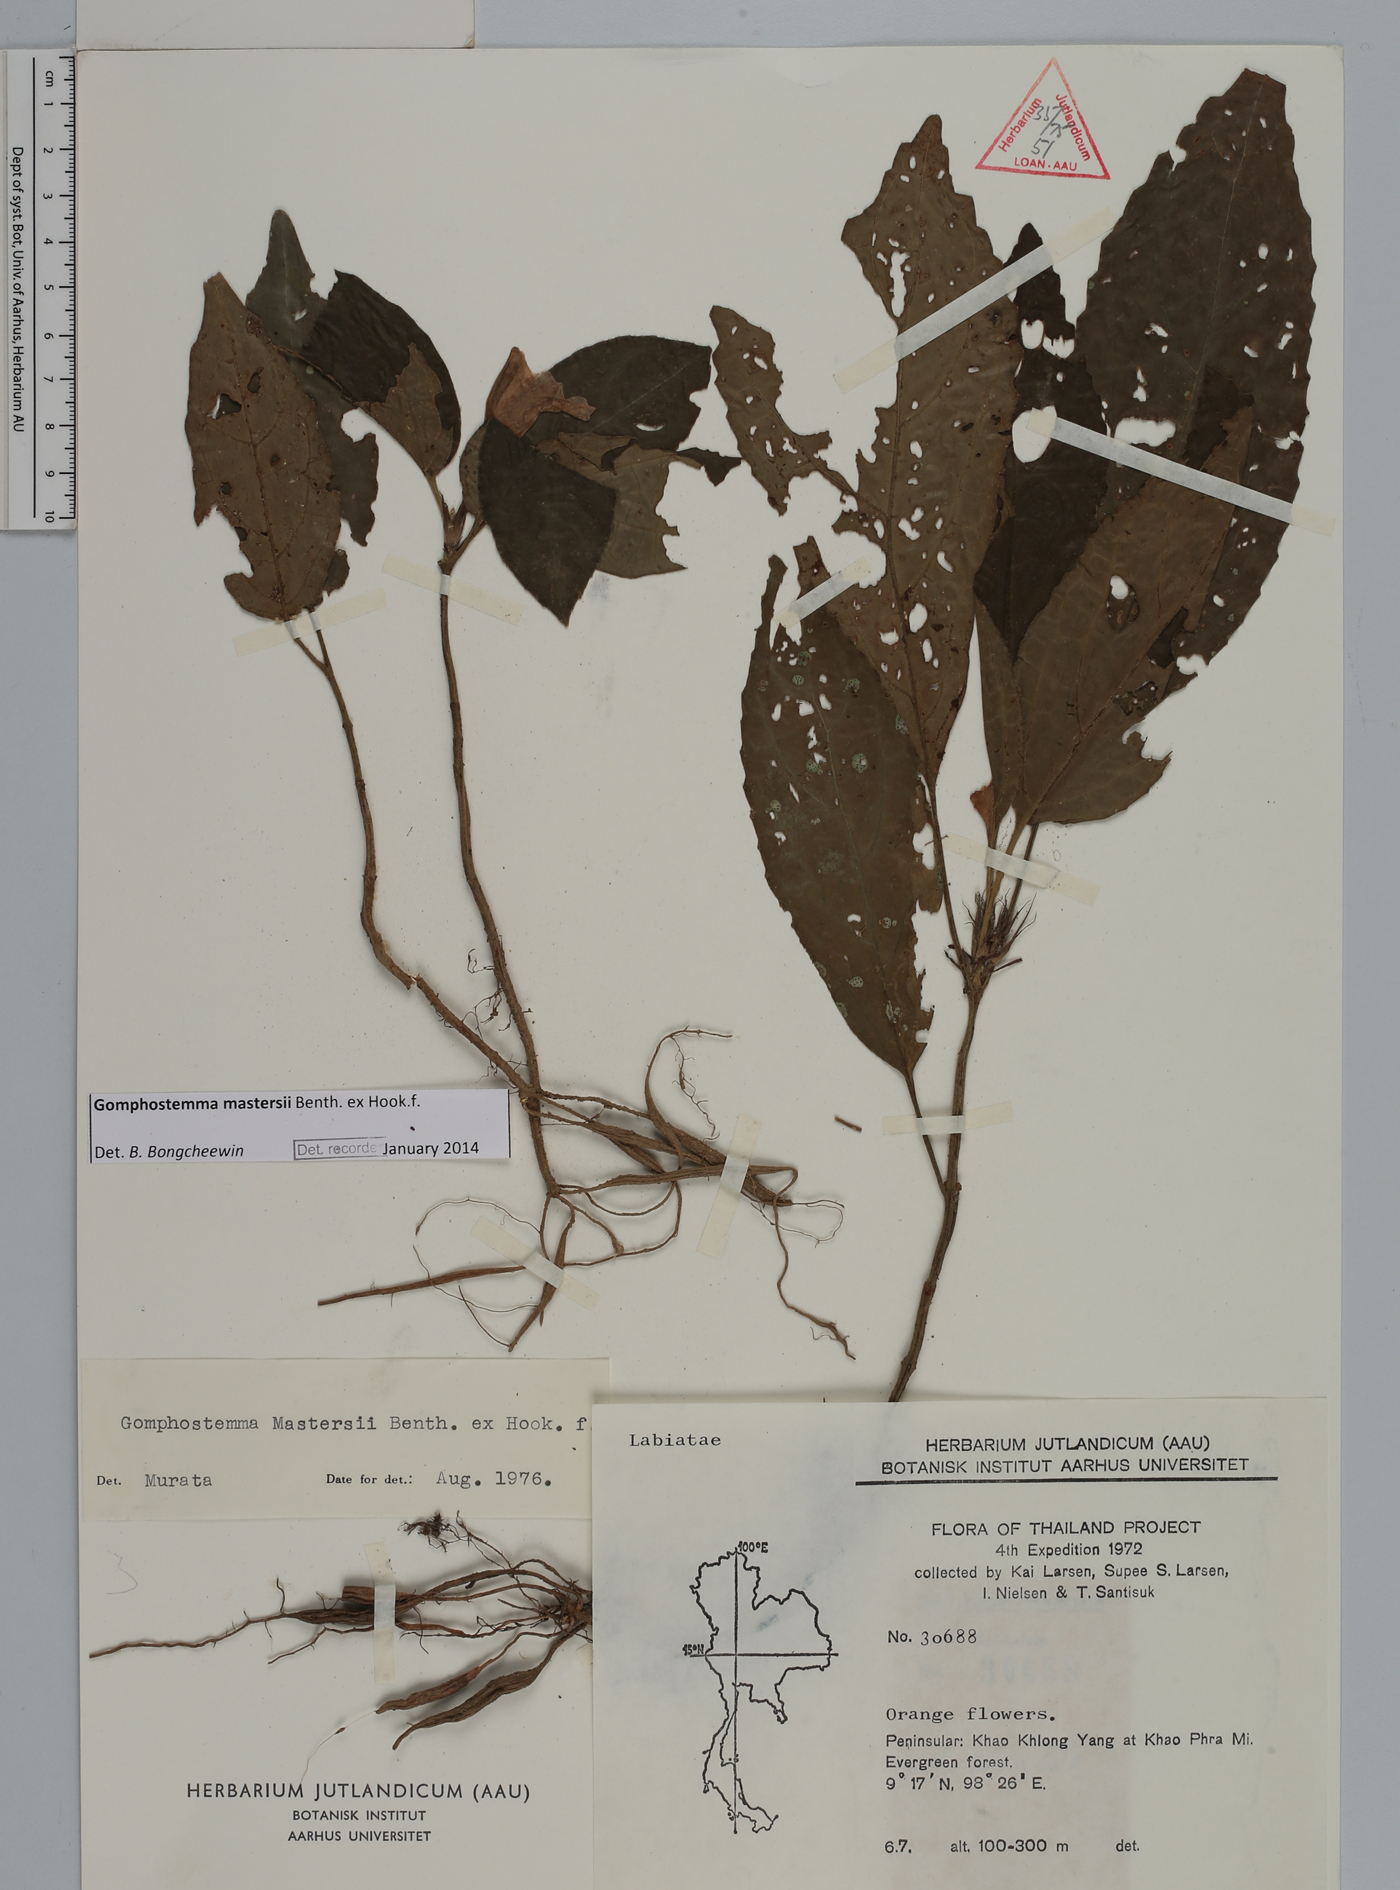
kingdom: Plantae
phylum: Tracheophyta
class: Magnoliopsida
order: Lamiales
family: Lamiaceae
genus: Gomphostemma
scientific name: Gomphostemma mastersii
